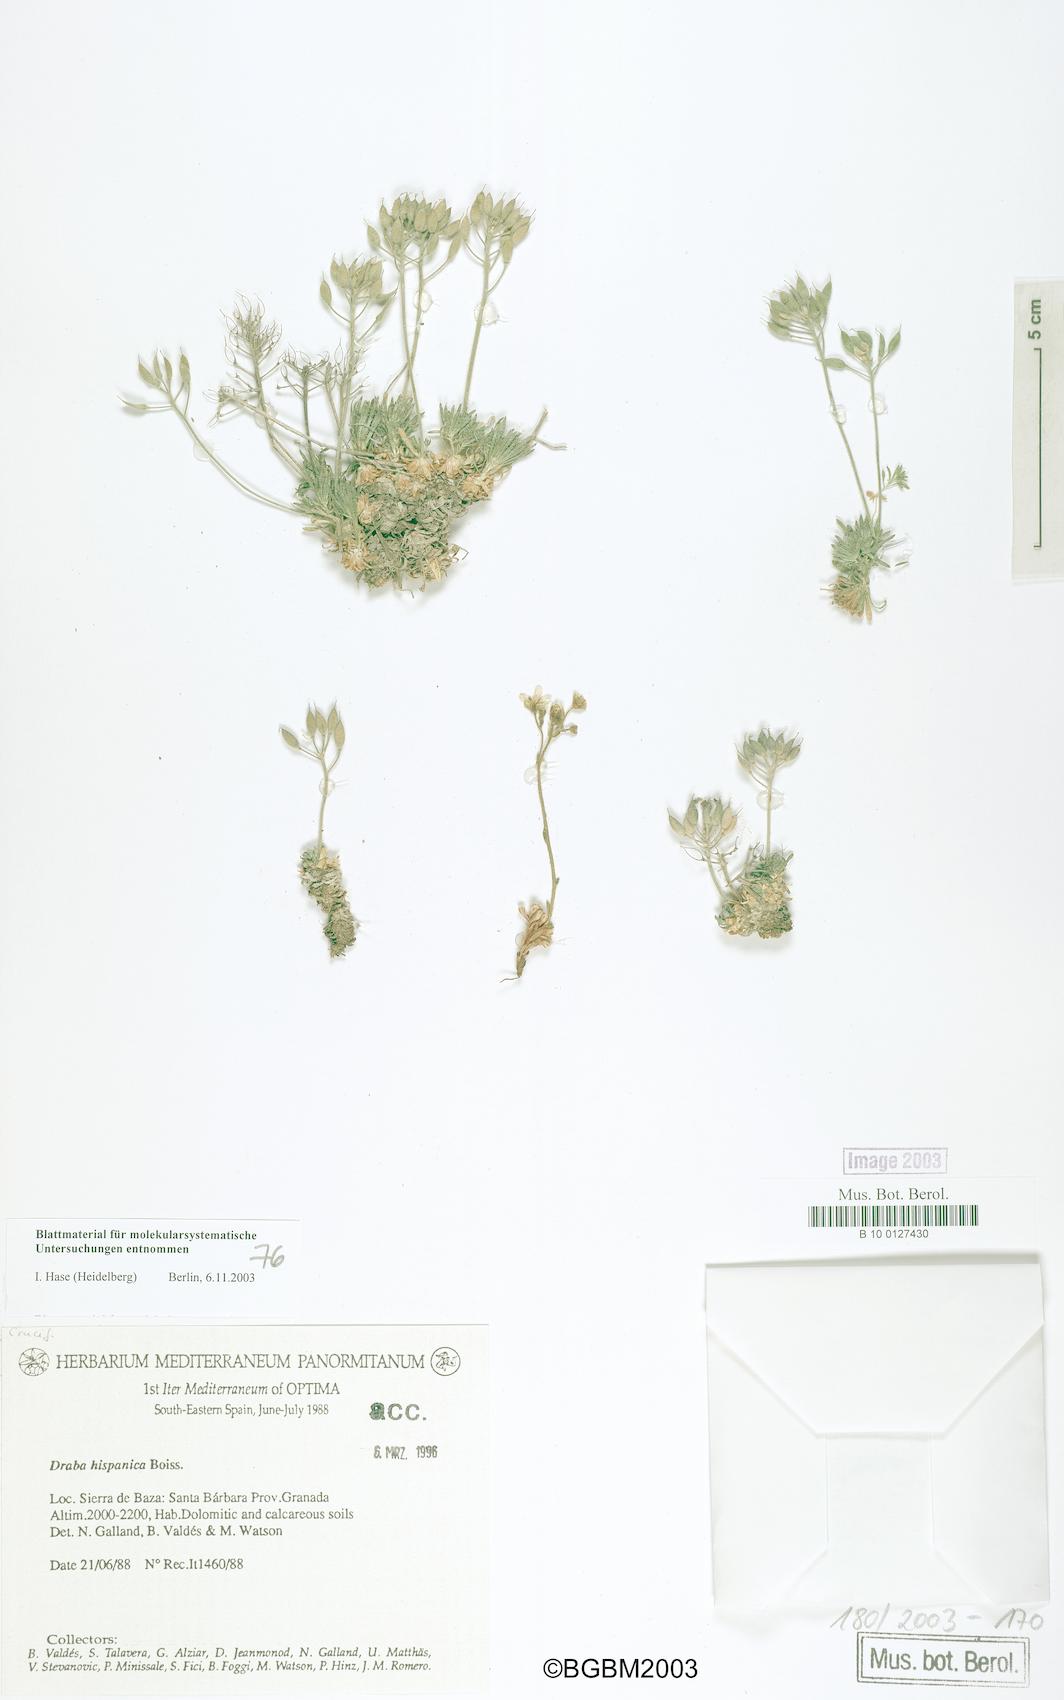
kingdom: Plantae
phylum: Tracheophyta
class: Magnoliopsida
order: Brassicales
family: Brassicaceae
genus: Draba
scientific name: Draba hispanica
